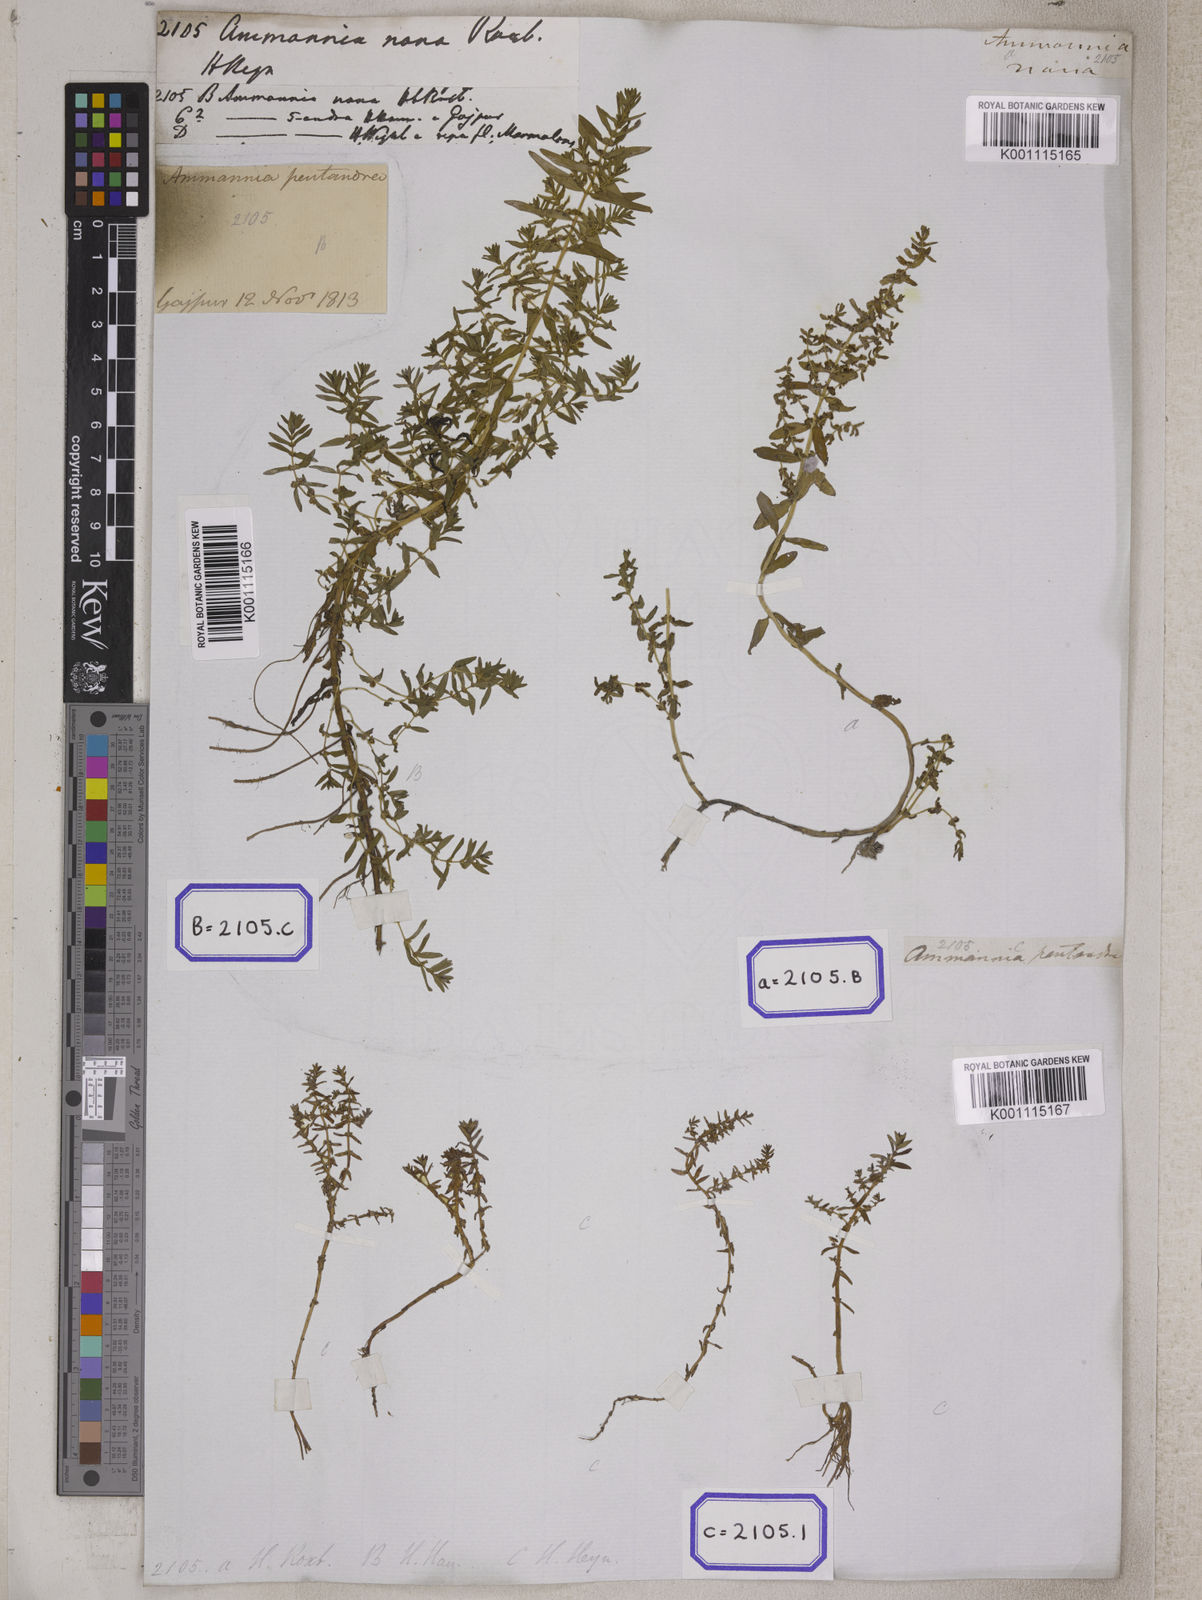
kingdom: Plantae
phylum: Tracheophyta
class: Magnoliopsida
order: Myrtales
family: Lythraceae
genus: Rotala
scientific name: Rotala indica
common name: Indian toothcup
